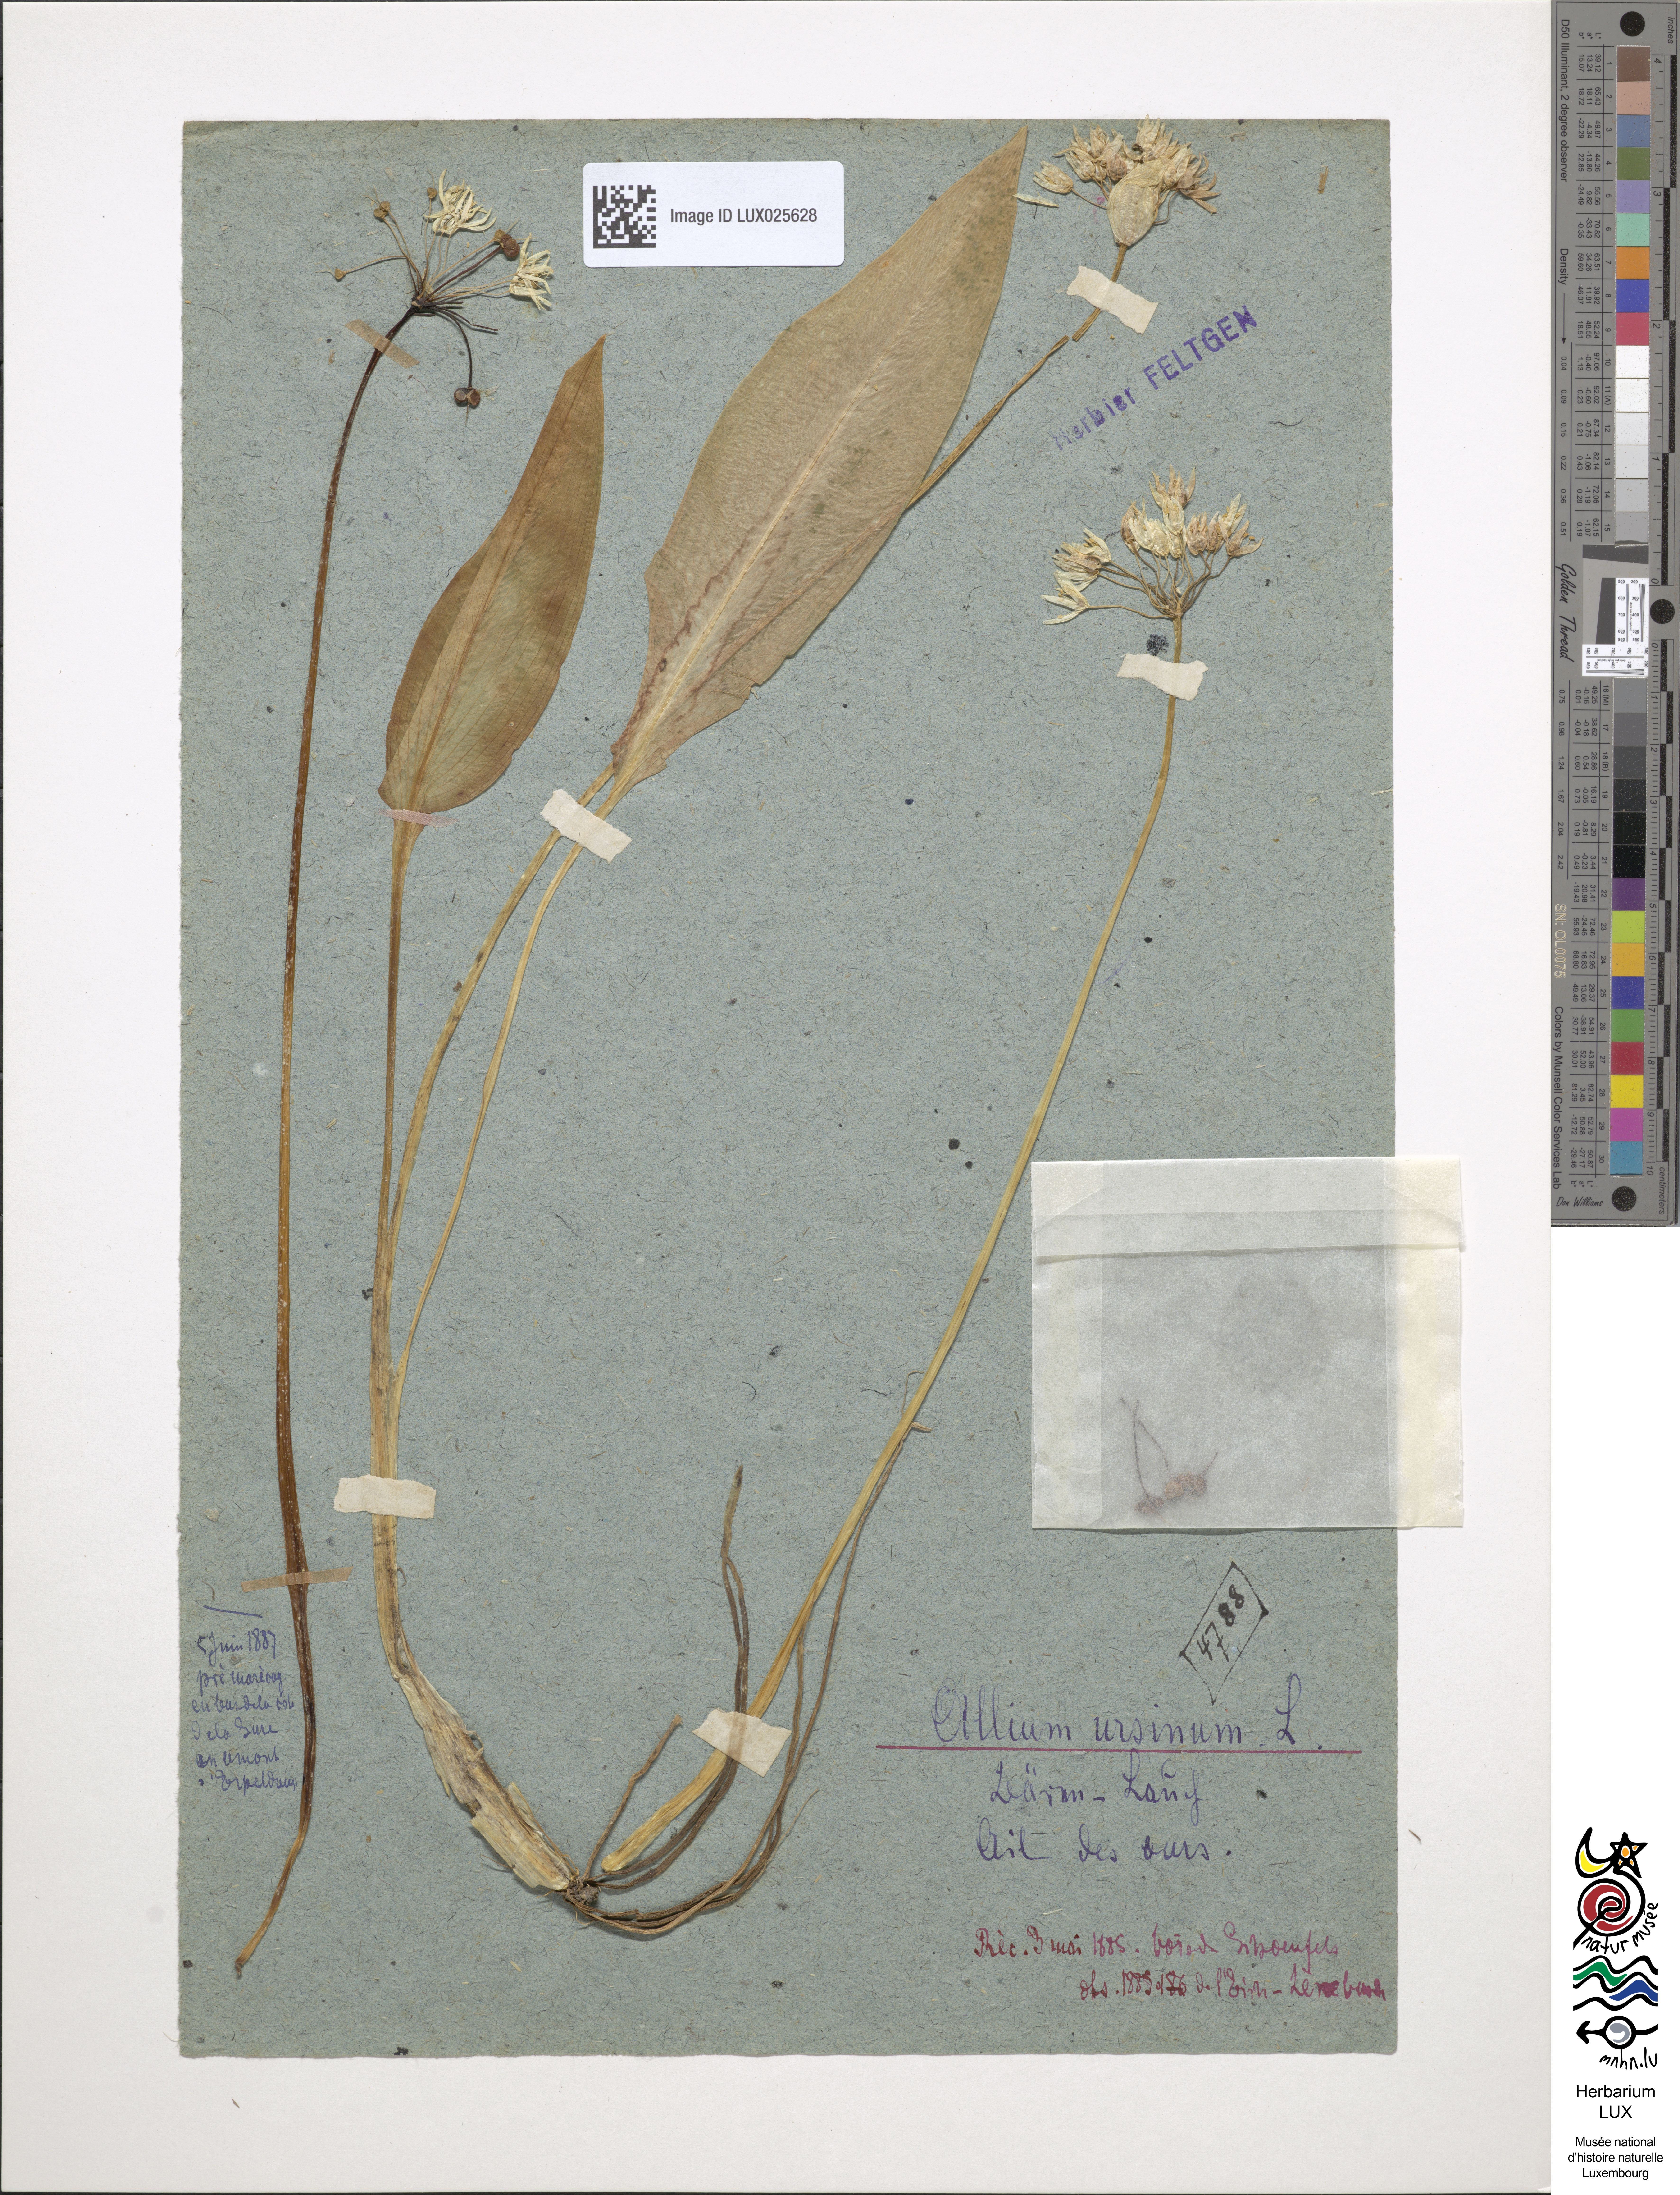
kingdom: Plantae
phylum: Tracheophyta
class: Liliopsida
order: Asparagales
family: Amaryllidaceae
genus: Allium
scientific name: Allium ursinum
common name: Ramsons
